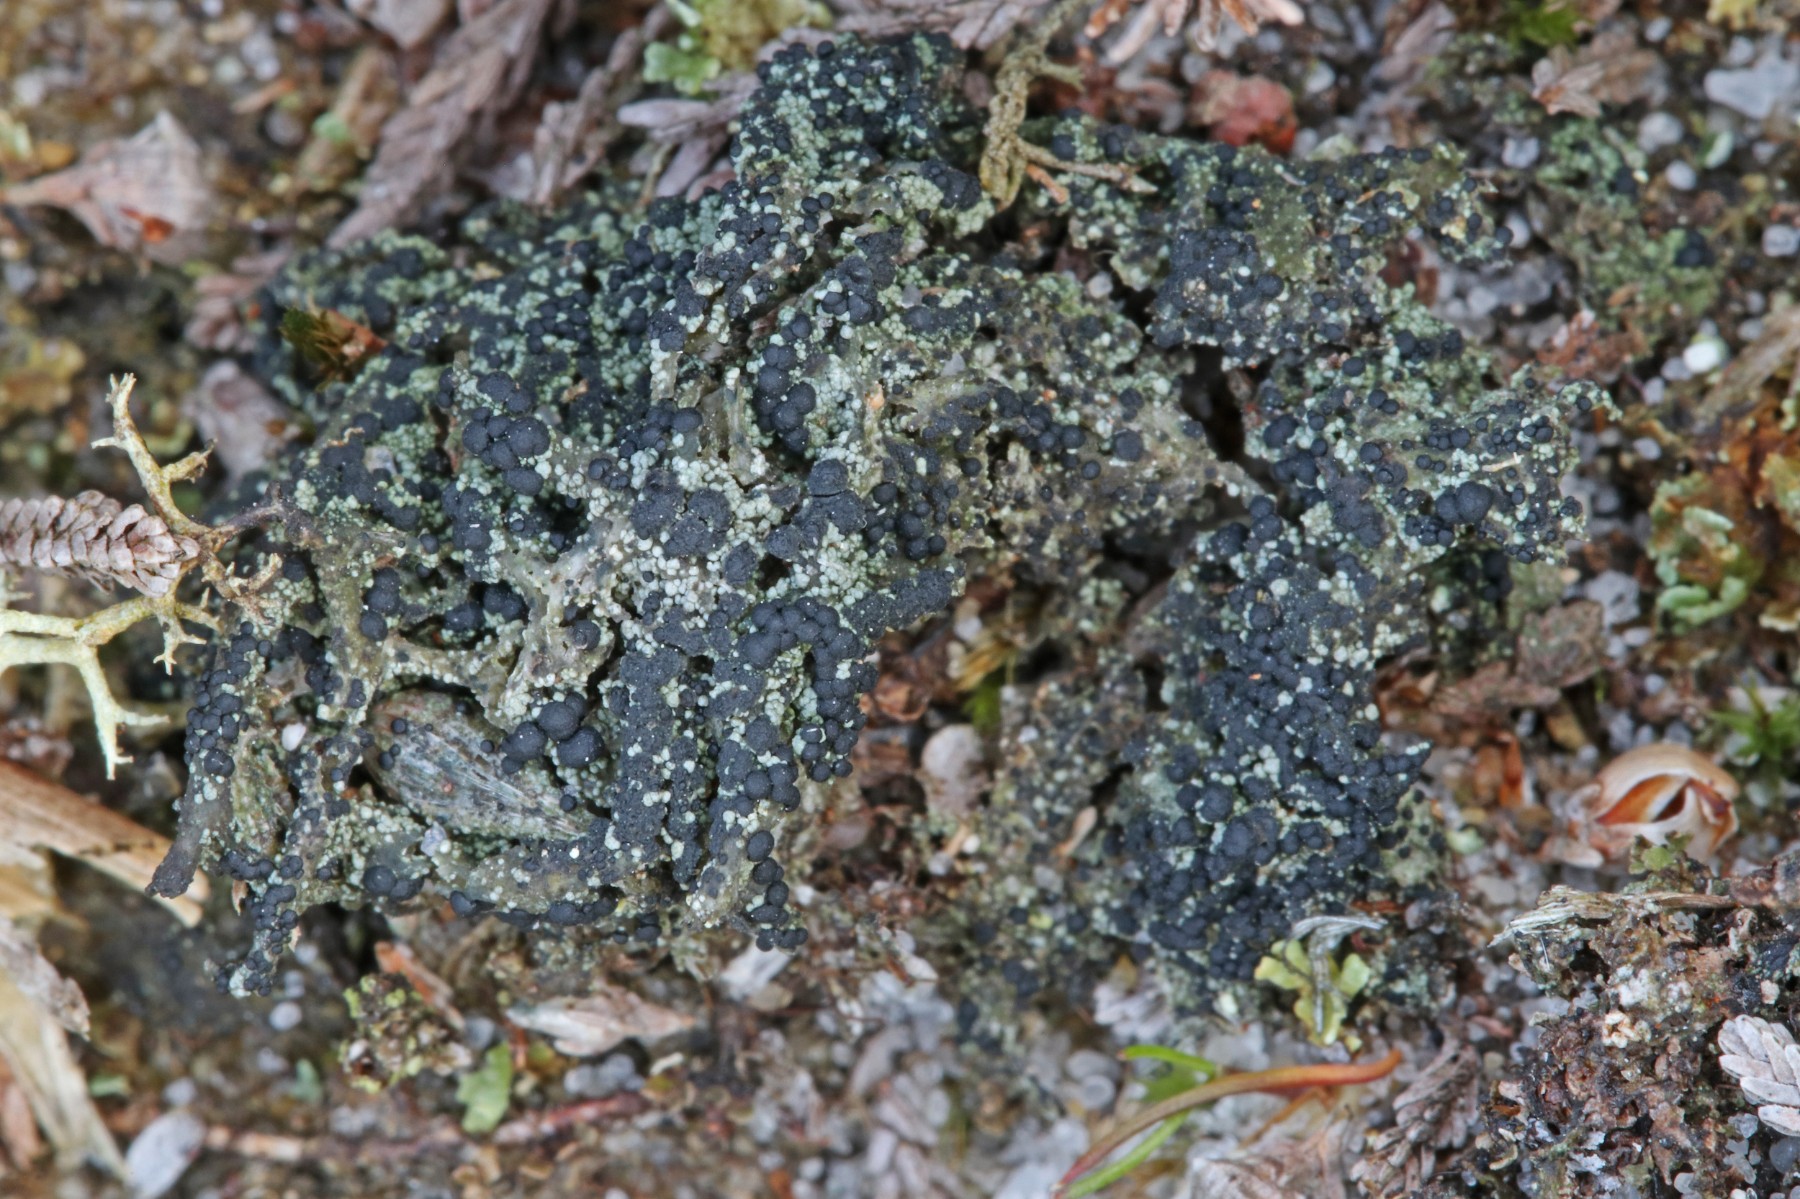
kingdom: Fungi
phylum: Ascomycota
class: Lecanoromycetes
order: Lecanorales
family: Byssolomataceae
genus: Micarea
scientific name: Micarea lignaria
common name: tørve-knaplav
